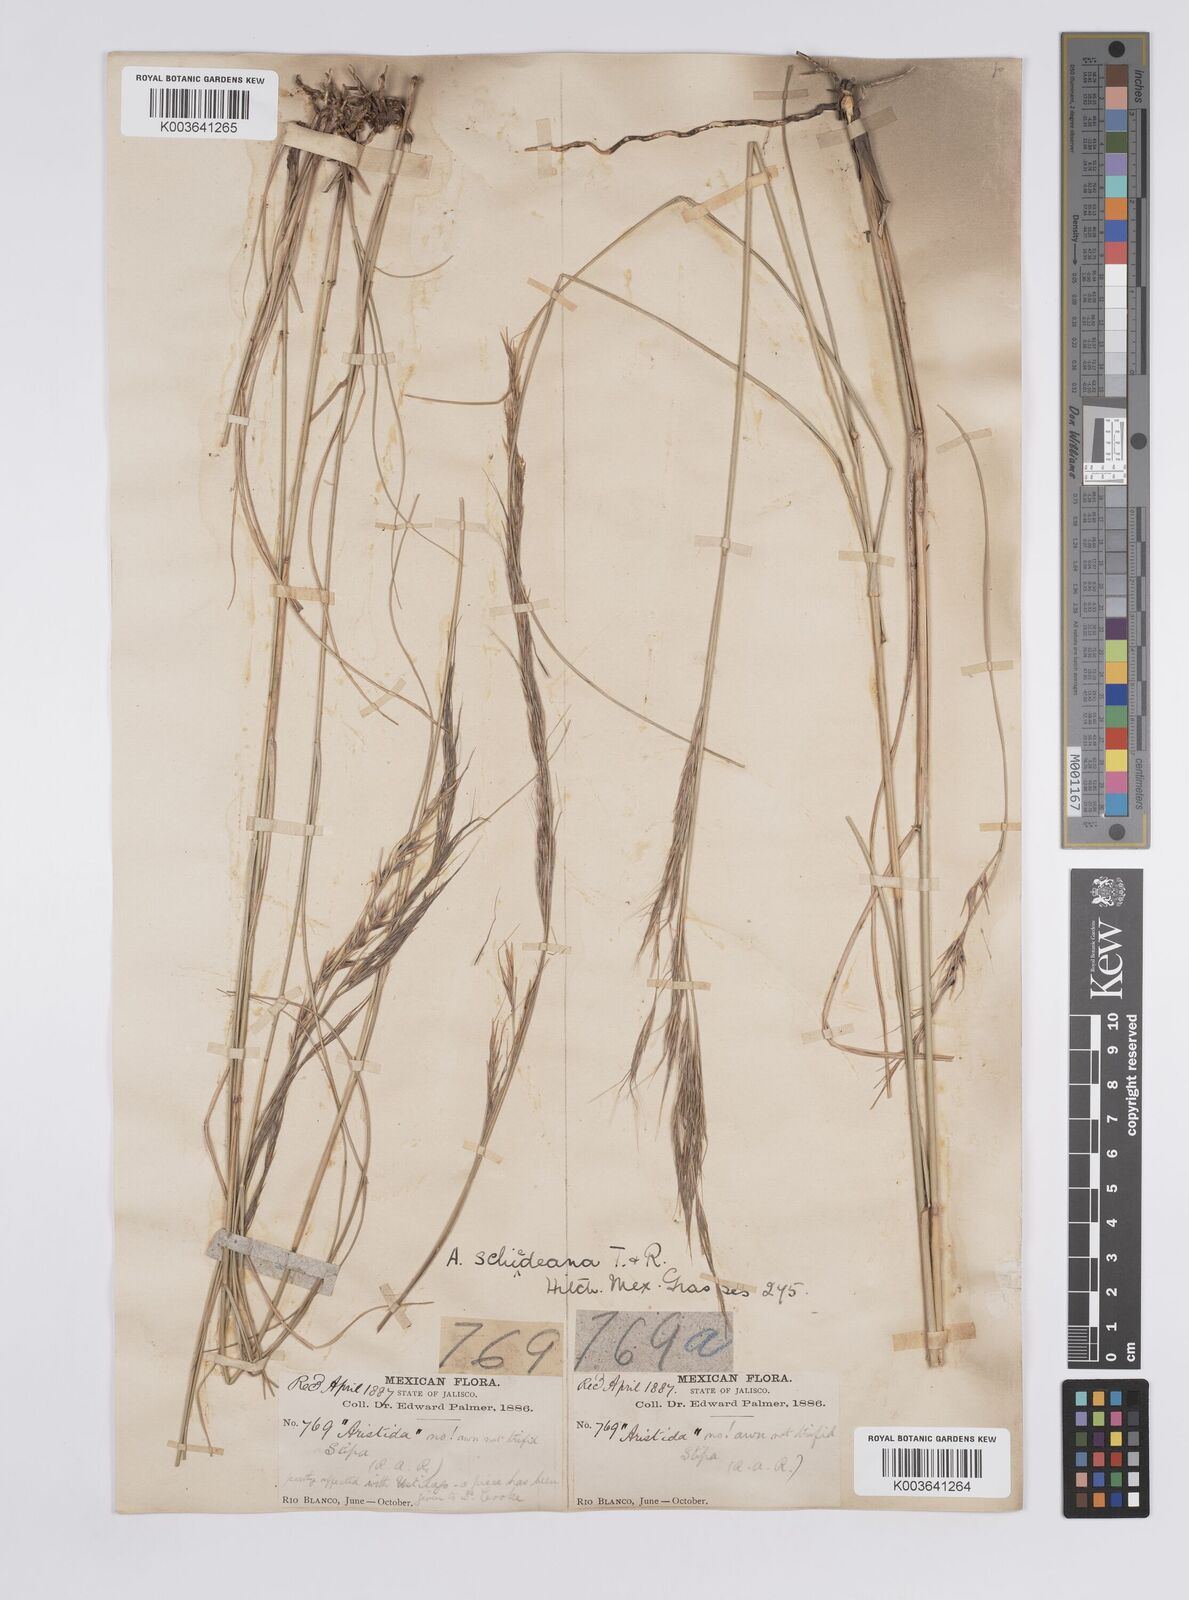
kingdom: Plantae
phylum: Tracheophyta
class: Liliopsida
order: Poales
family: Poaceae
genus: Aristida
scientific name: Aristida schiedeana
